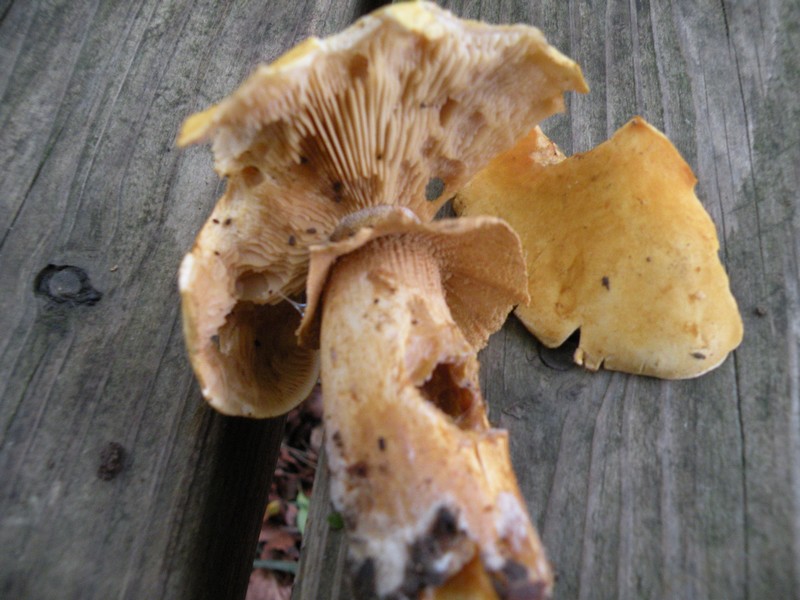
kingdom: Fungi
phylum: Basidiomycota
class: Agaricomycetes
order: Agaricales
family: Tricholomataceae
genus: Phaeolepiota
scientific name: Phaeolepiota aurea
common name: gyldenhat
